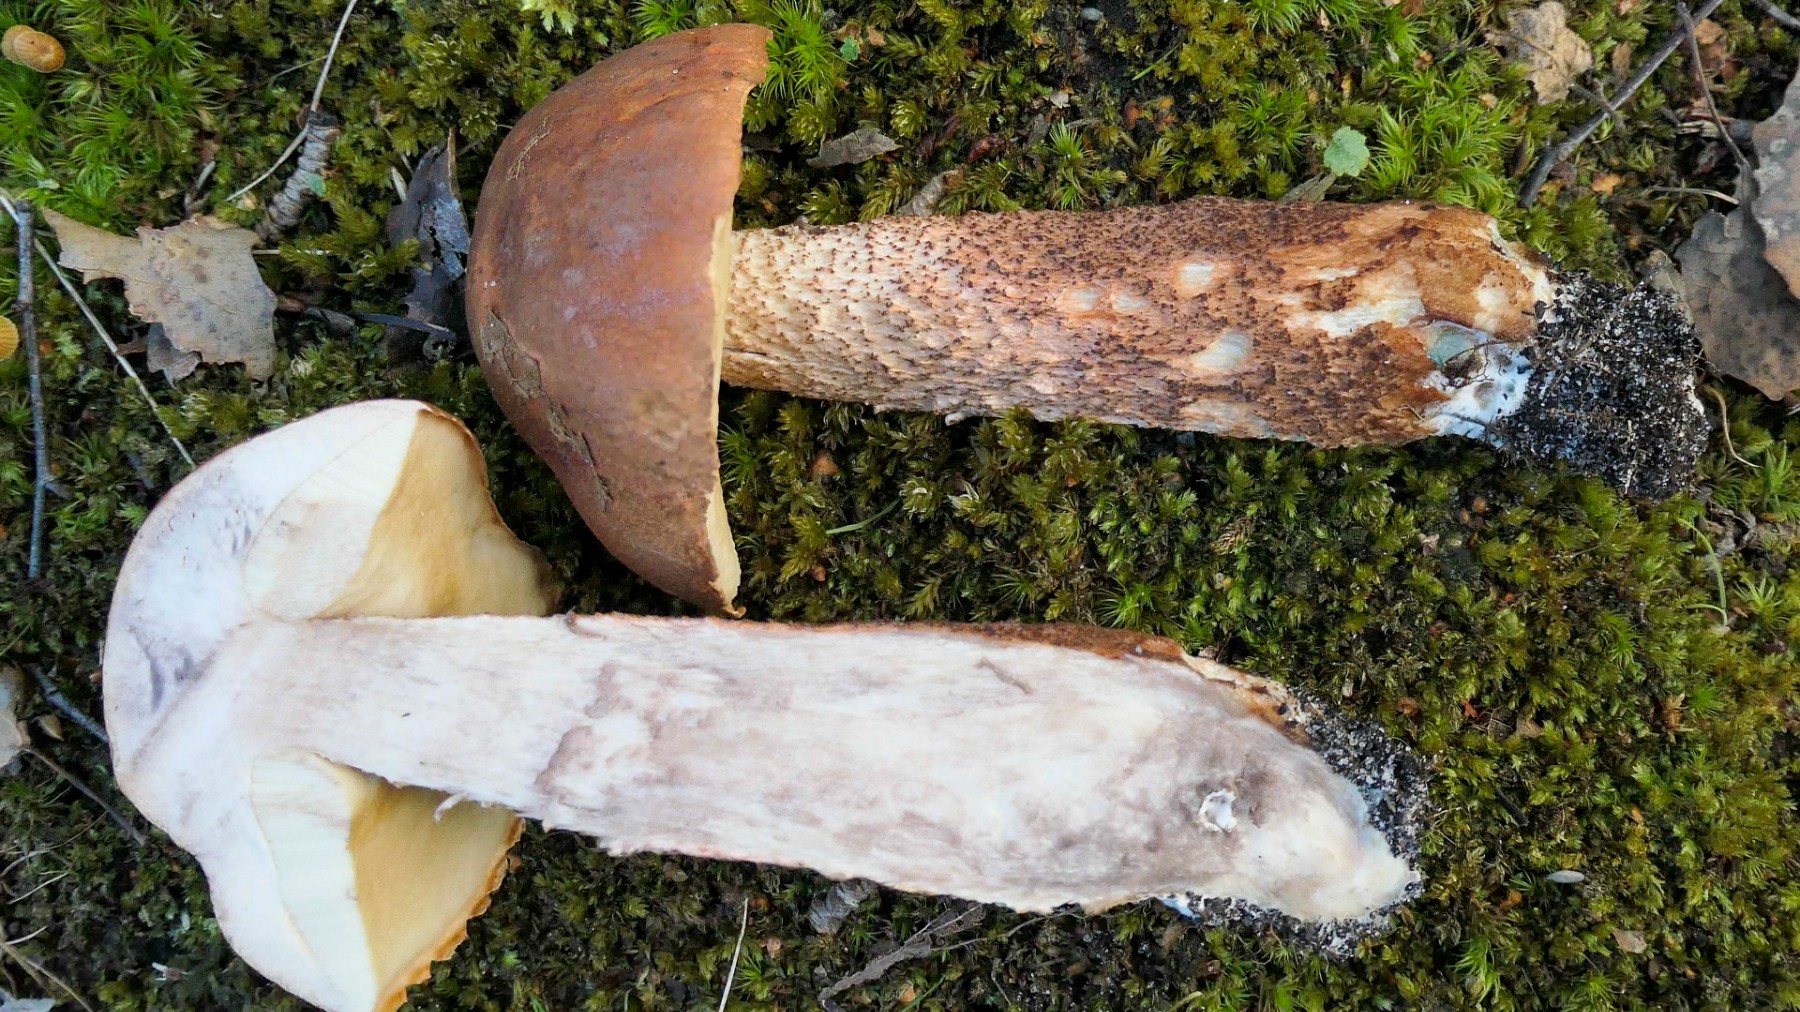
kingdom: Fungi
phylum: Basidiomycota
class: Agaricomycetes
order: Boletales
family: Boletaceae
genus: Leccinum
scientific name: Leccinum aurantiacum
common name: rustrød skælrørhat
